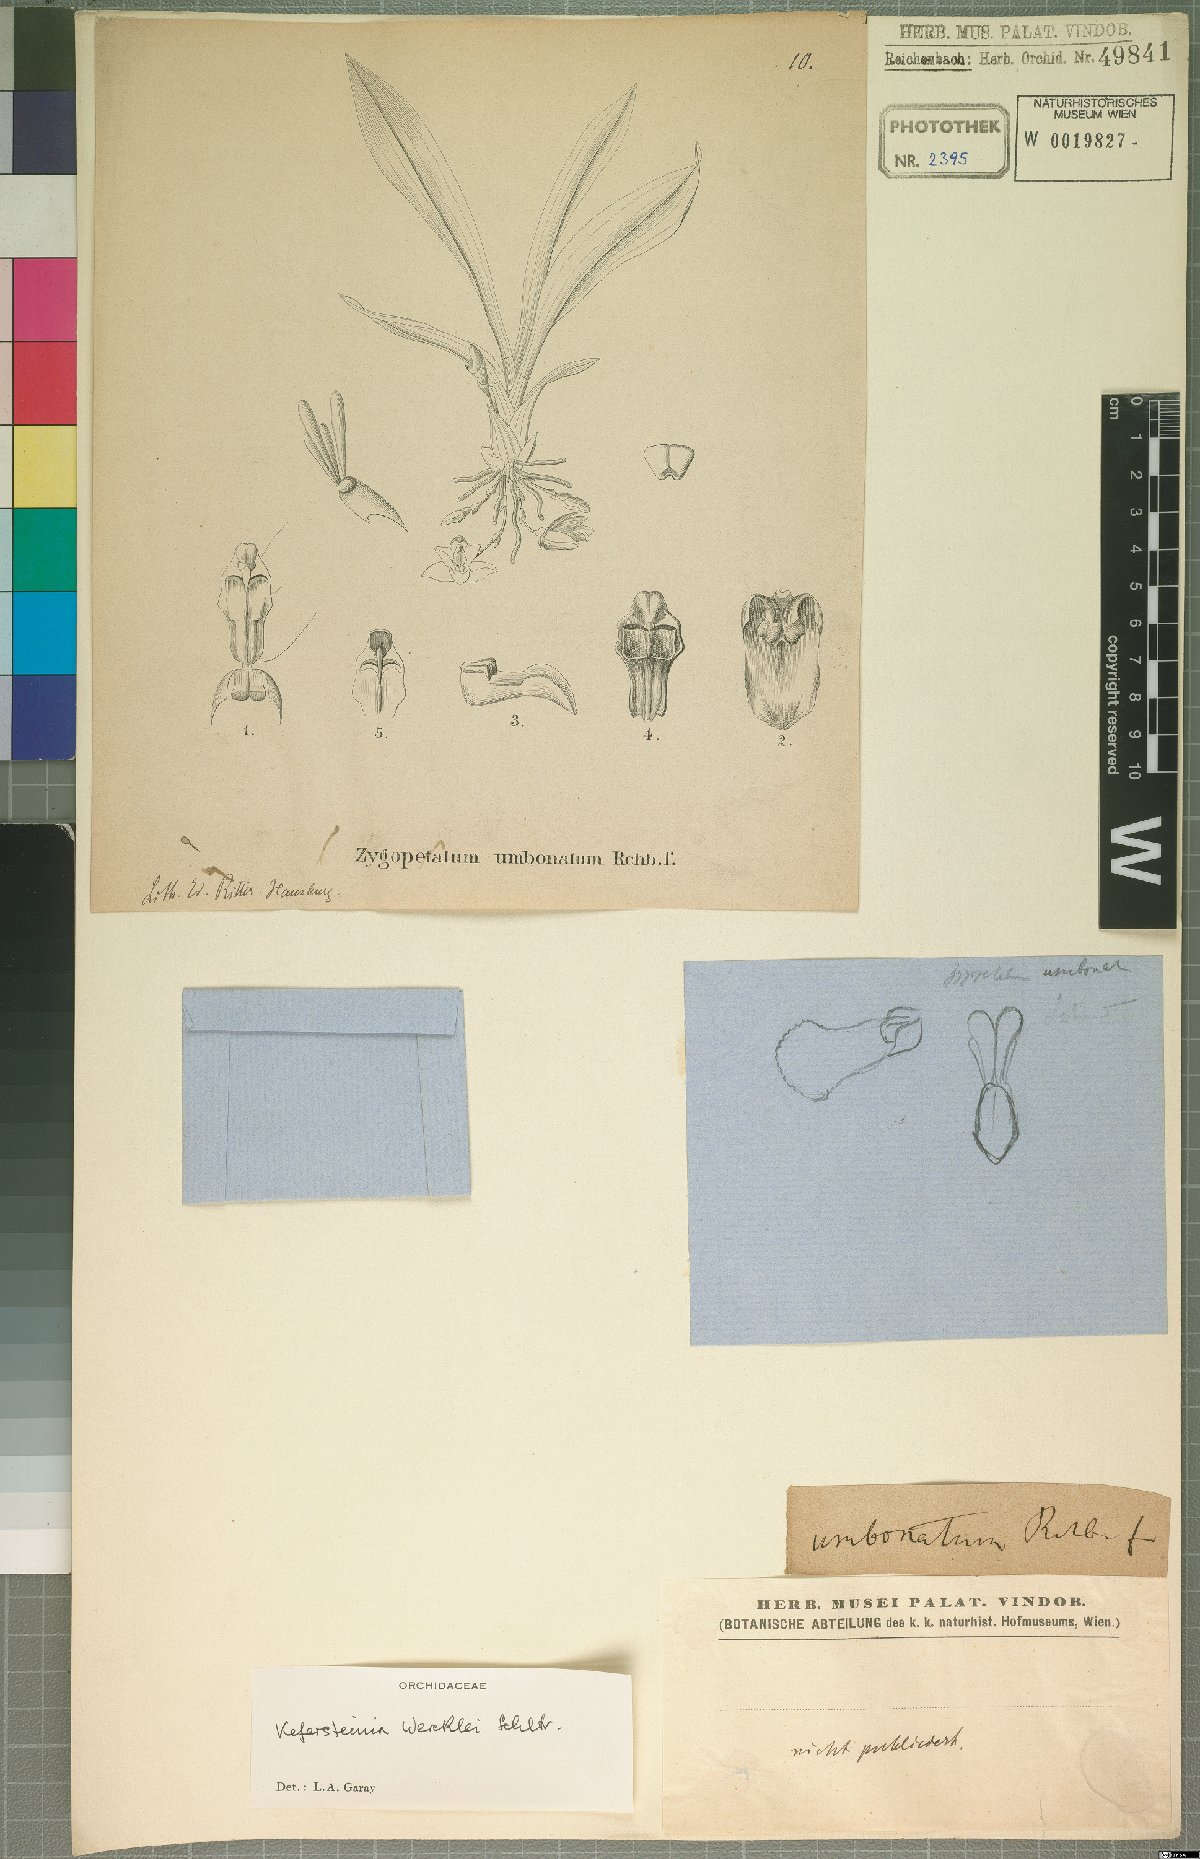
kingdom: Plantae
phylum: Tracheophyta
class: Liliopsida
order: Asparagales
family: Orchidaceae
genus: Kefersteinia
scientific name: Kefersteinia wercklei
